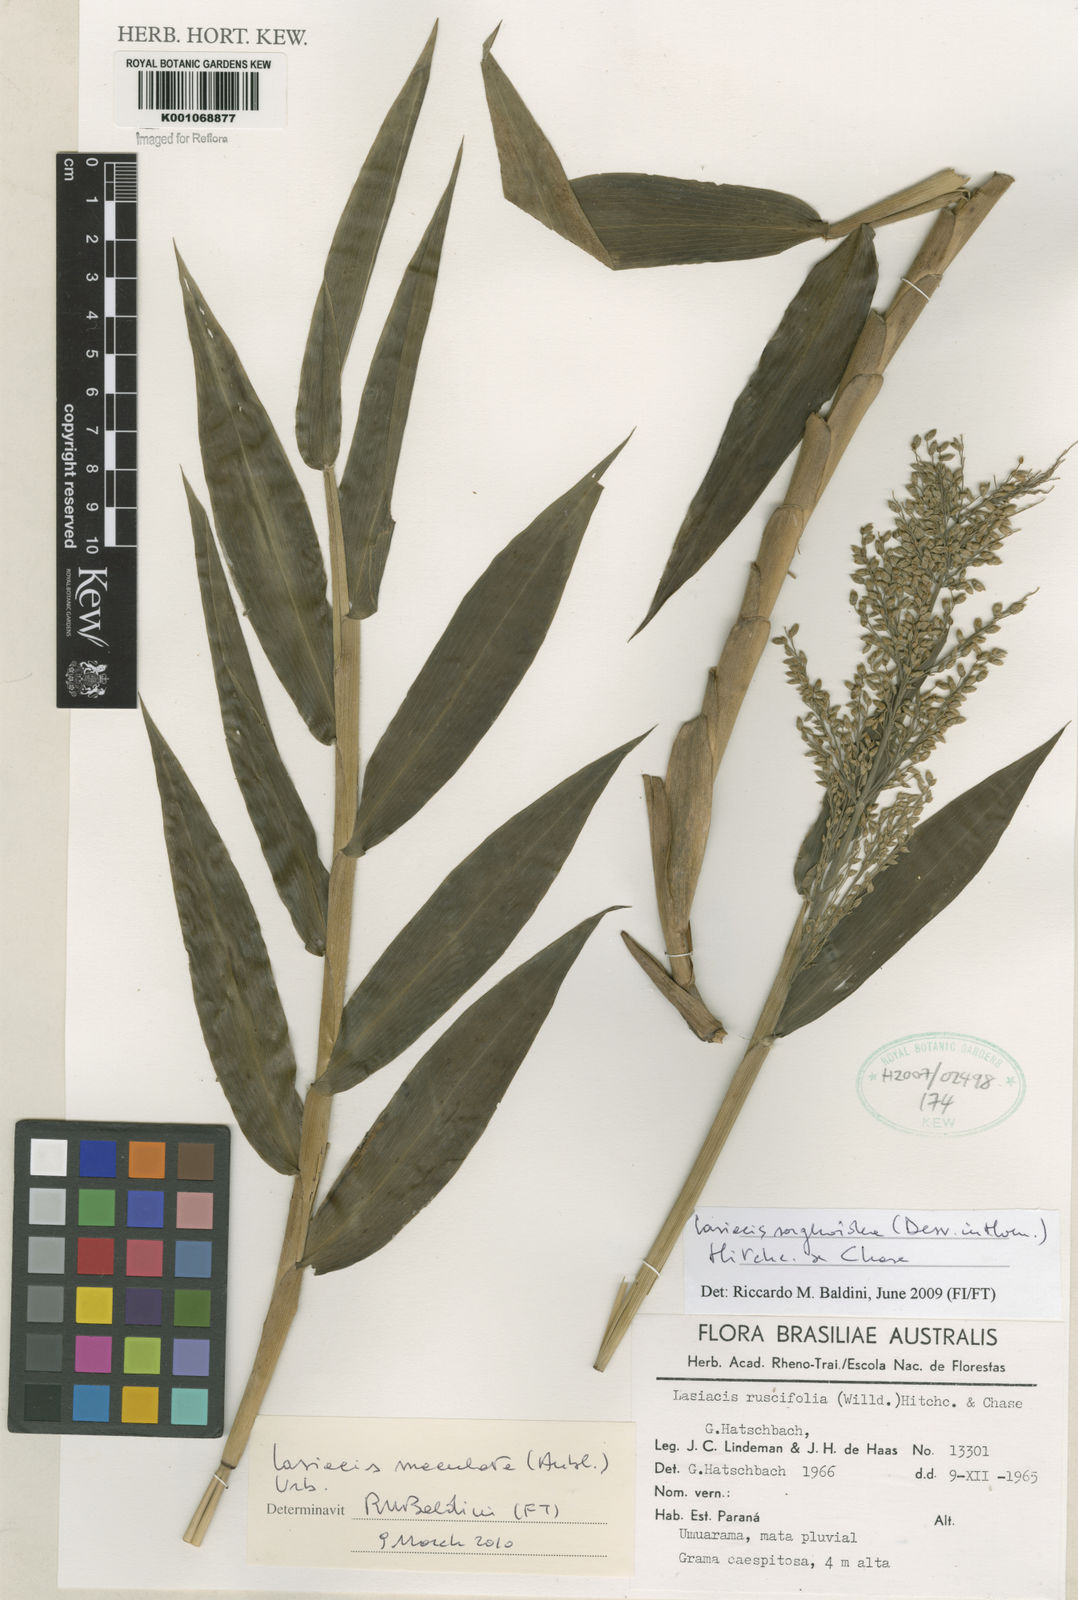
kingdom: Plantae
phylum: Tracheophyta
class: Liliopsida
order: Poales
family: Poaceae
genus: Lasiacis
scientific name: Lasiacis maculata
